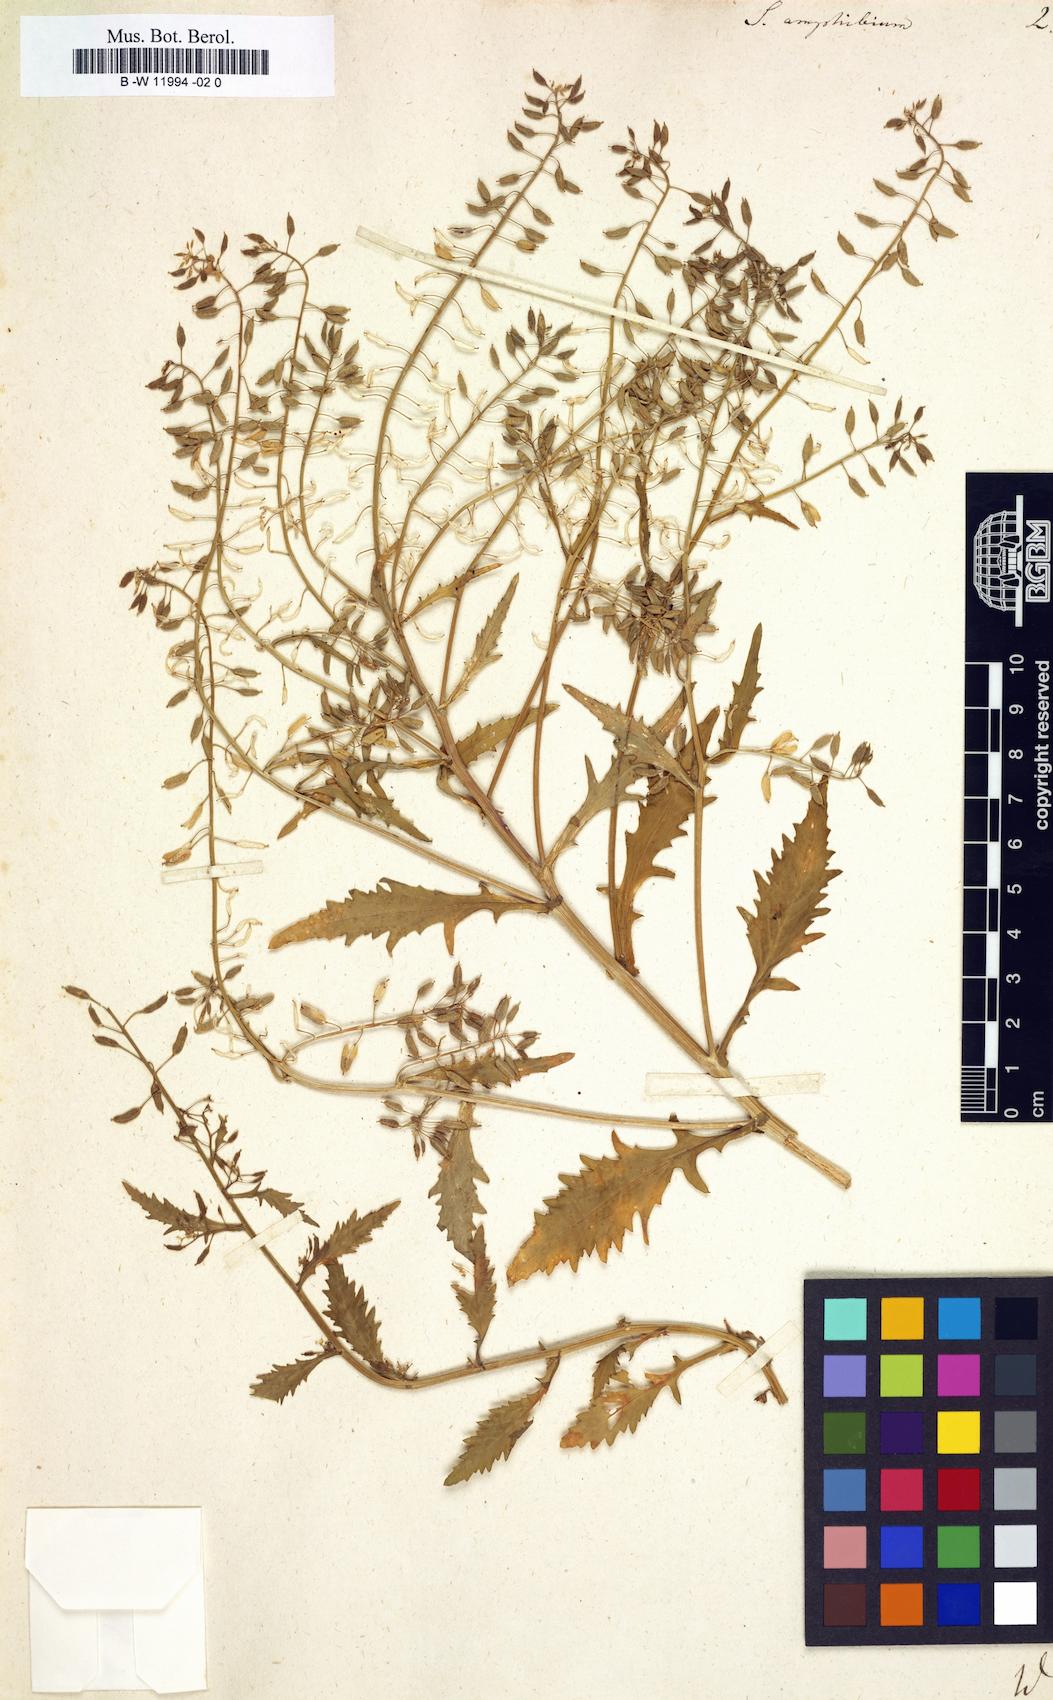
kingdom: Plantae
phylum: Tracheophyta
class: Magnoliopsida
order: Brassicales
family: Brassicaceae
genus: Rorippa
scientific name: Rorippa amphibia
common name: Great yellow-cress
